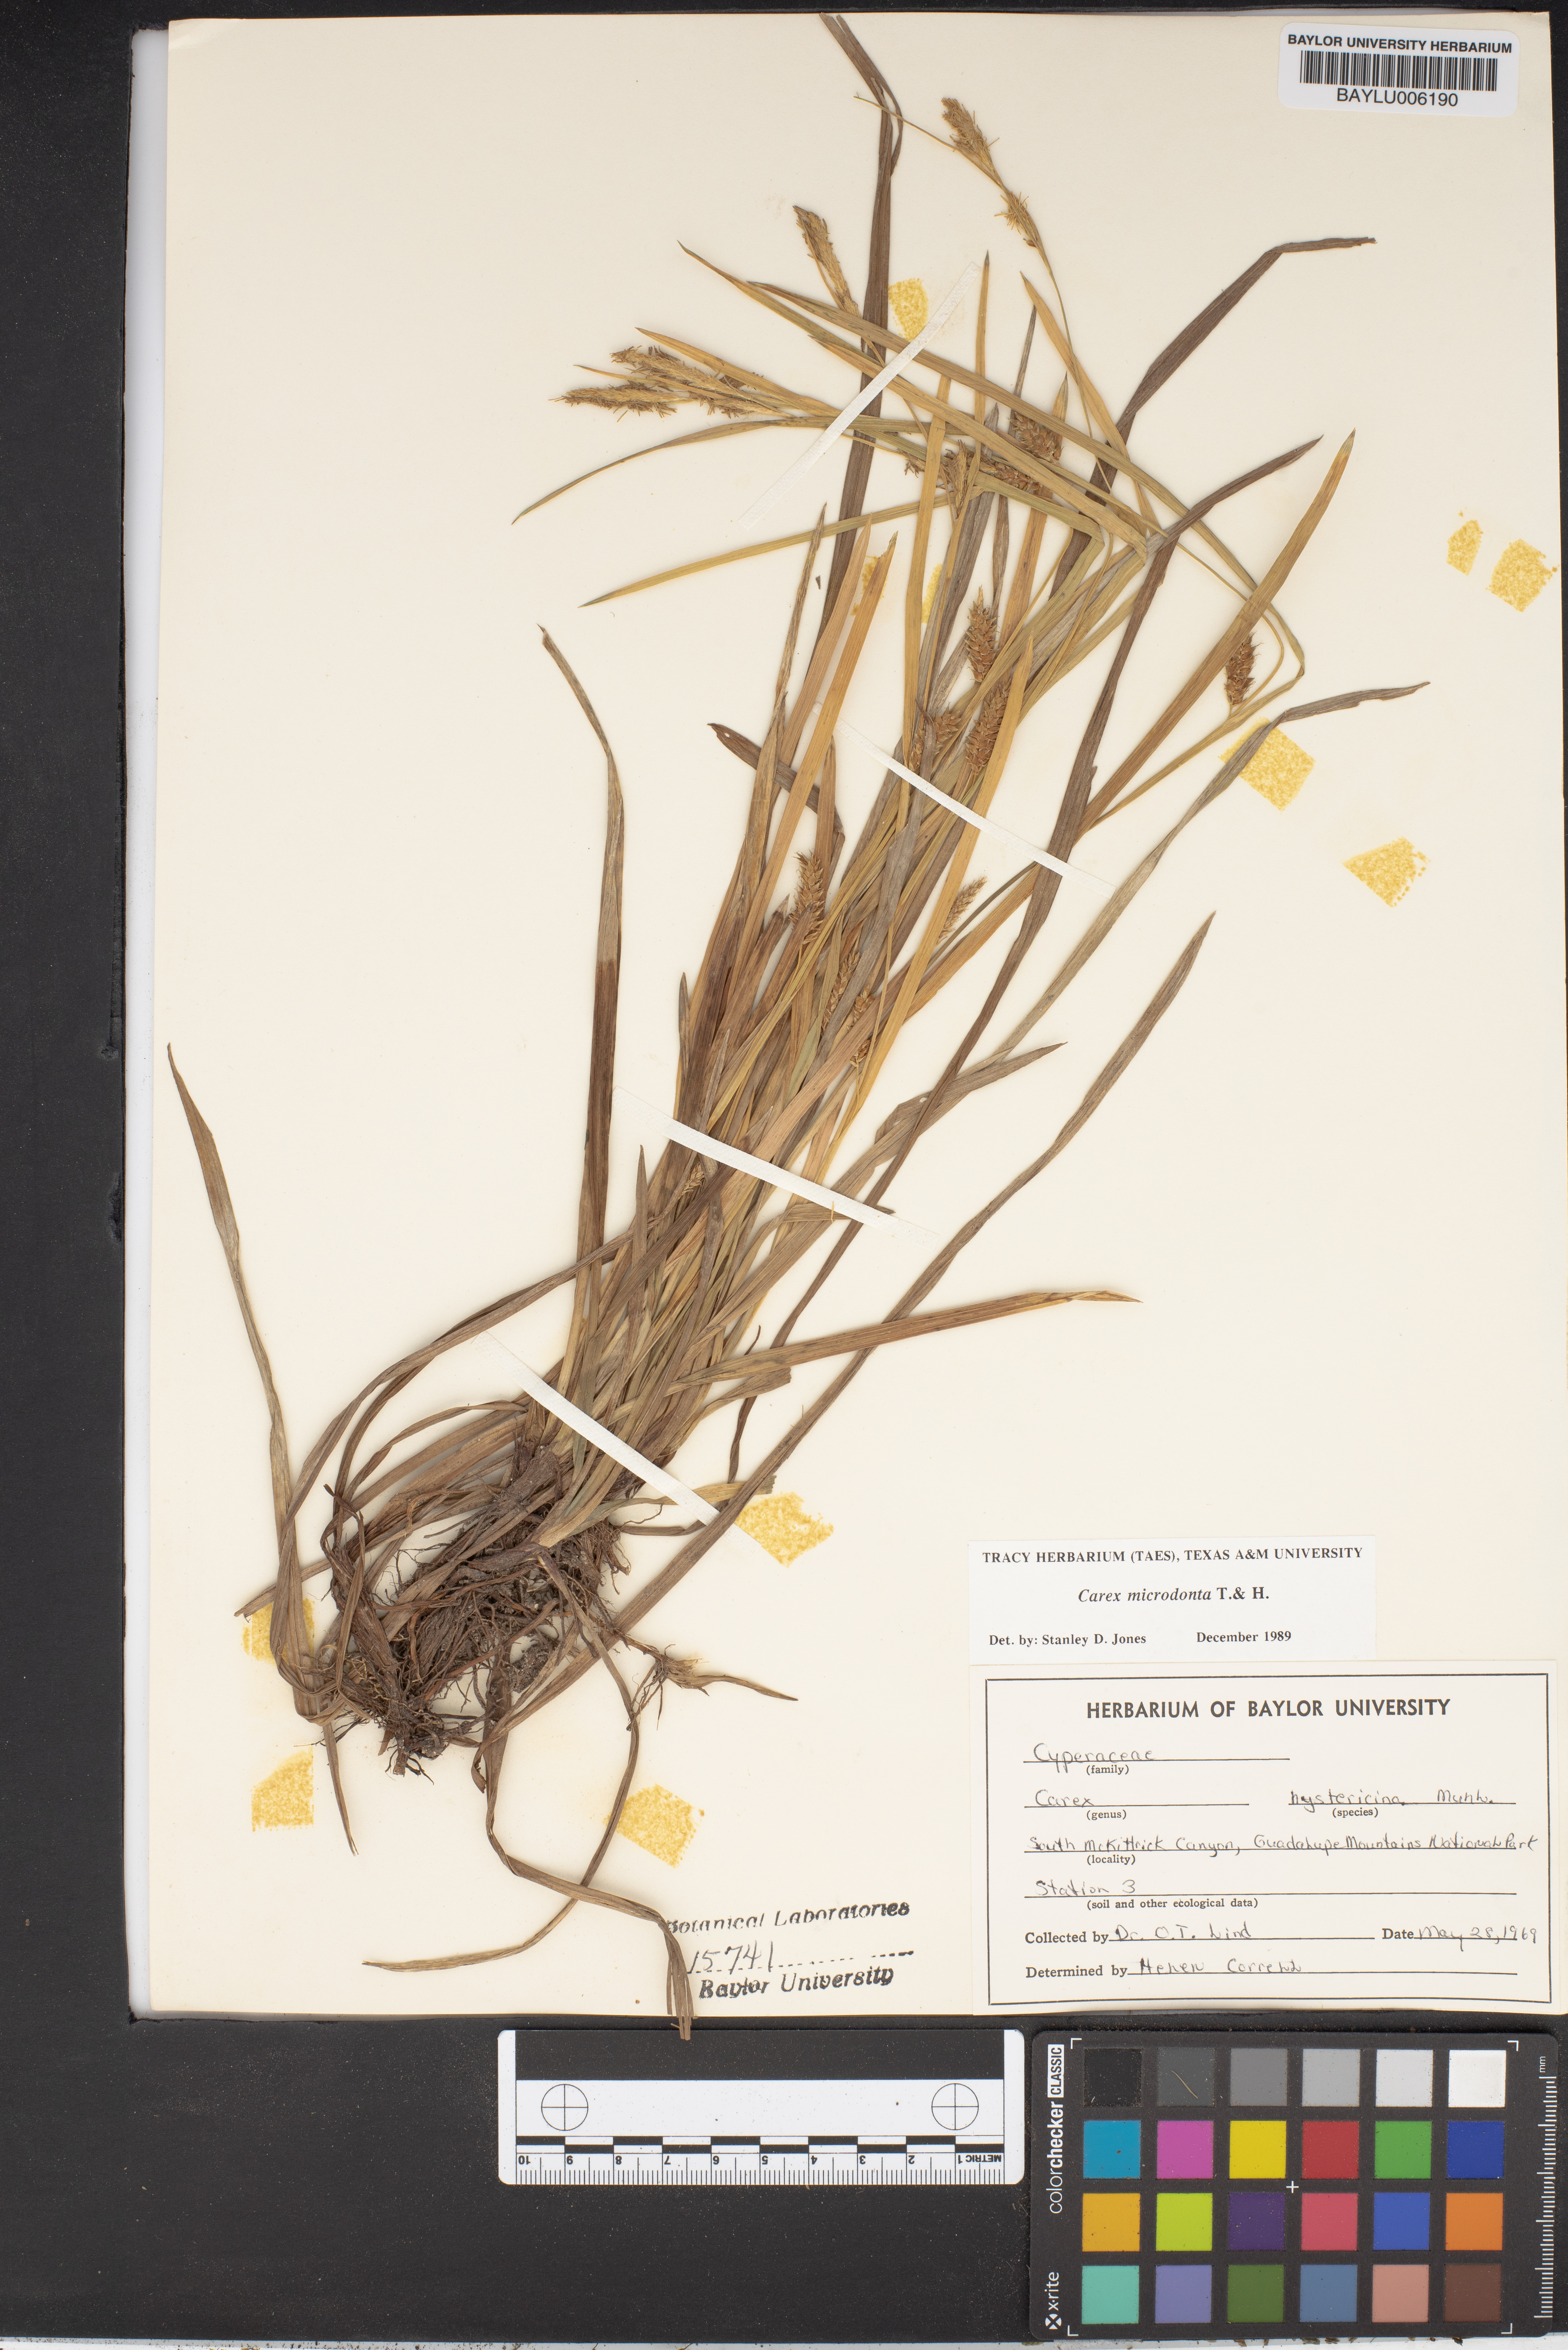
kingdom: Plantae
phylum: Tracheophyta
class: Liliopsida
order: Poales
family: Cyperaceae
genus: Carex
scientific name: Carex hystericina
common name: Bottlebrush sedge
